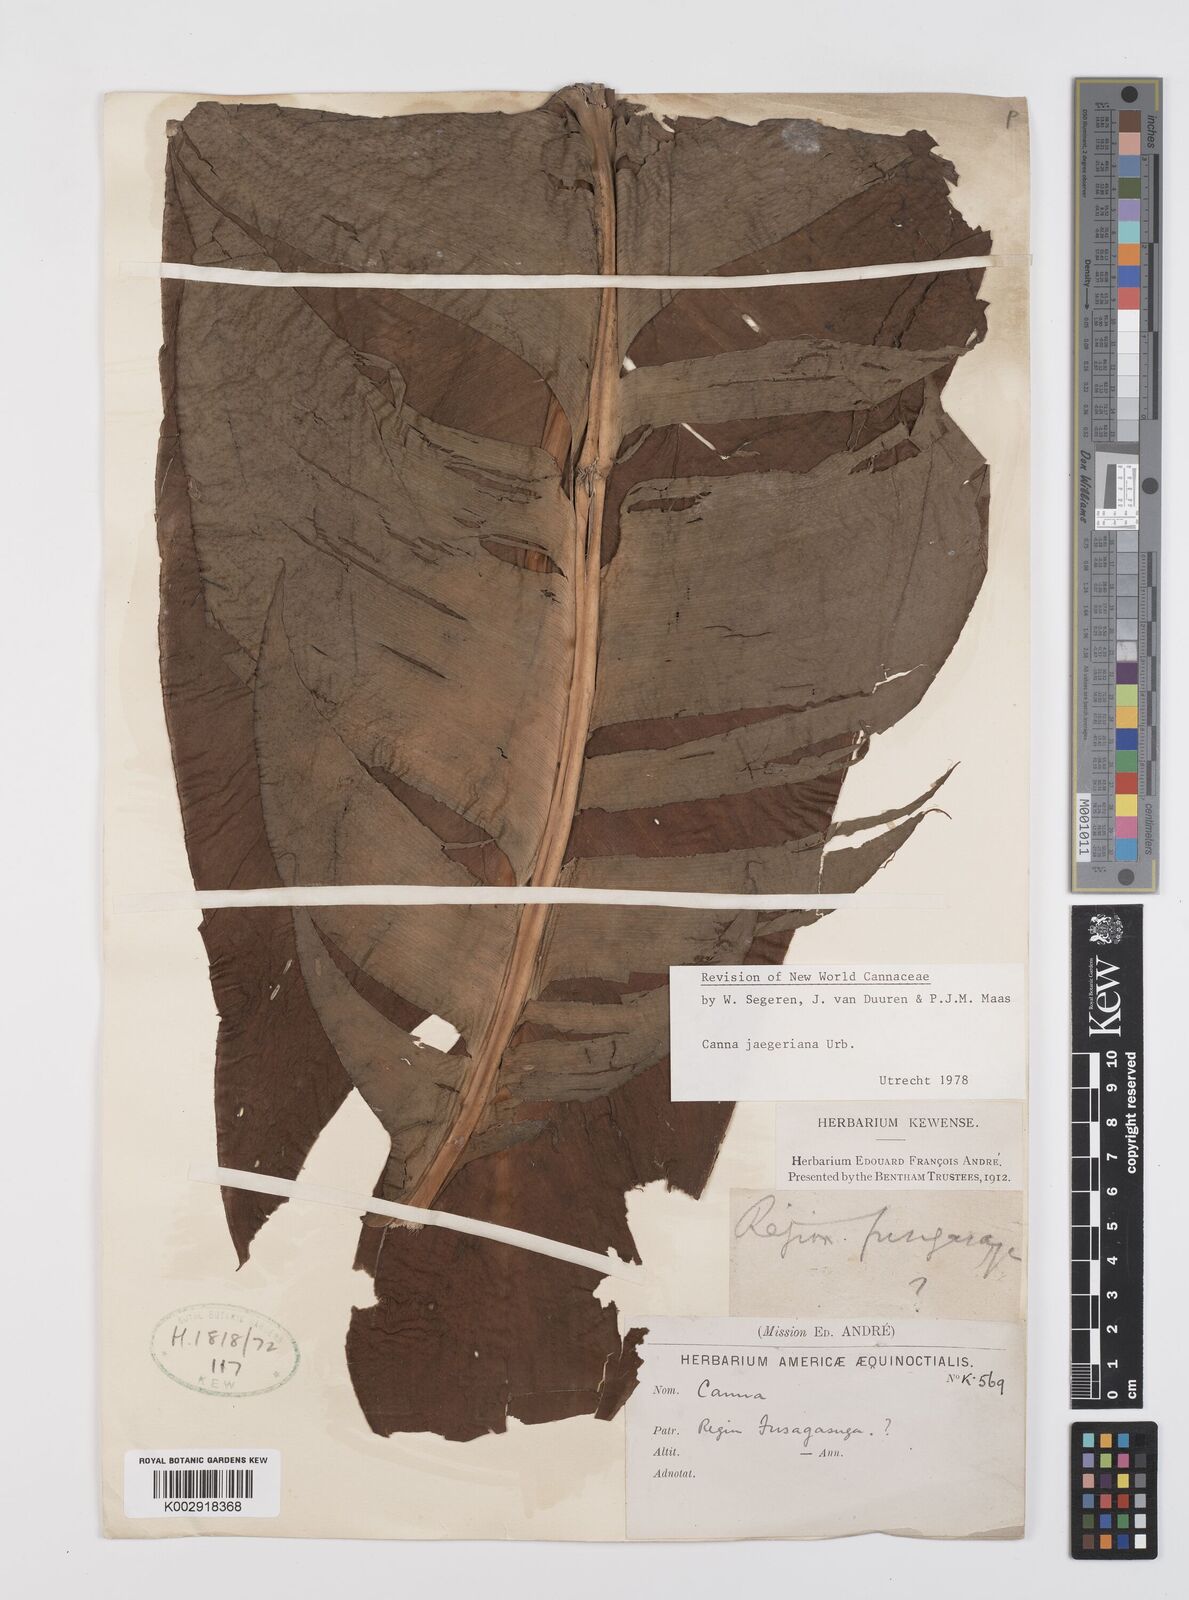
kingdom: Plantae
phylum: Tracheophyta
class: Liliopsida
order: Zingiberales
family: Cannaceae
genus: Canna
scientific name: Canna jaegeriana
